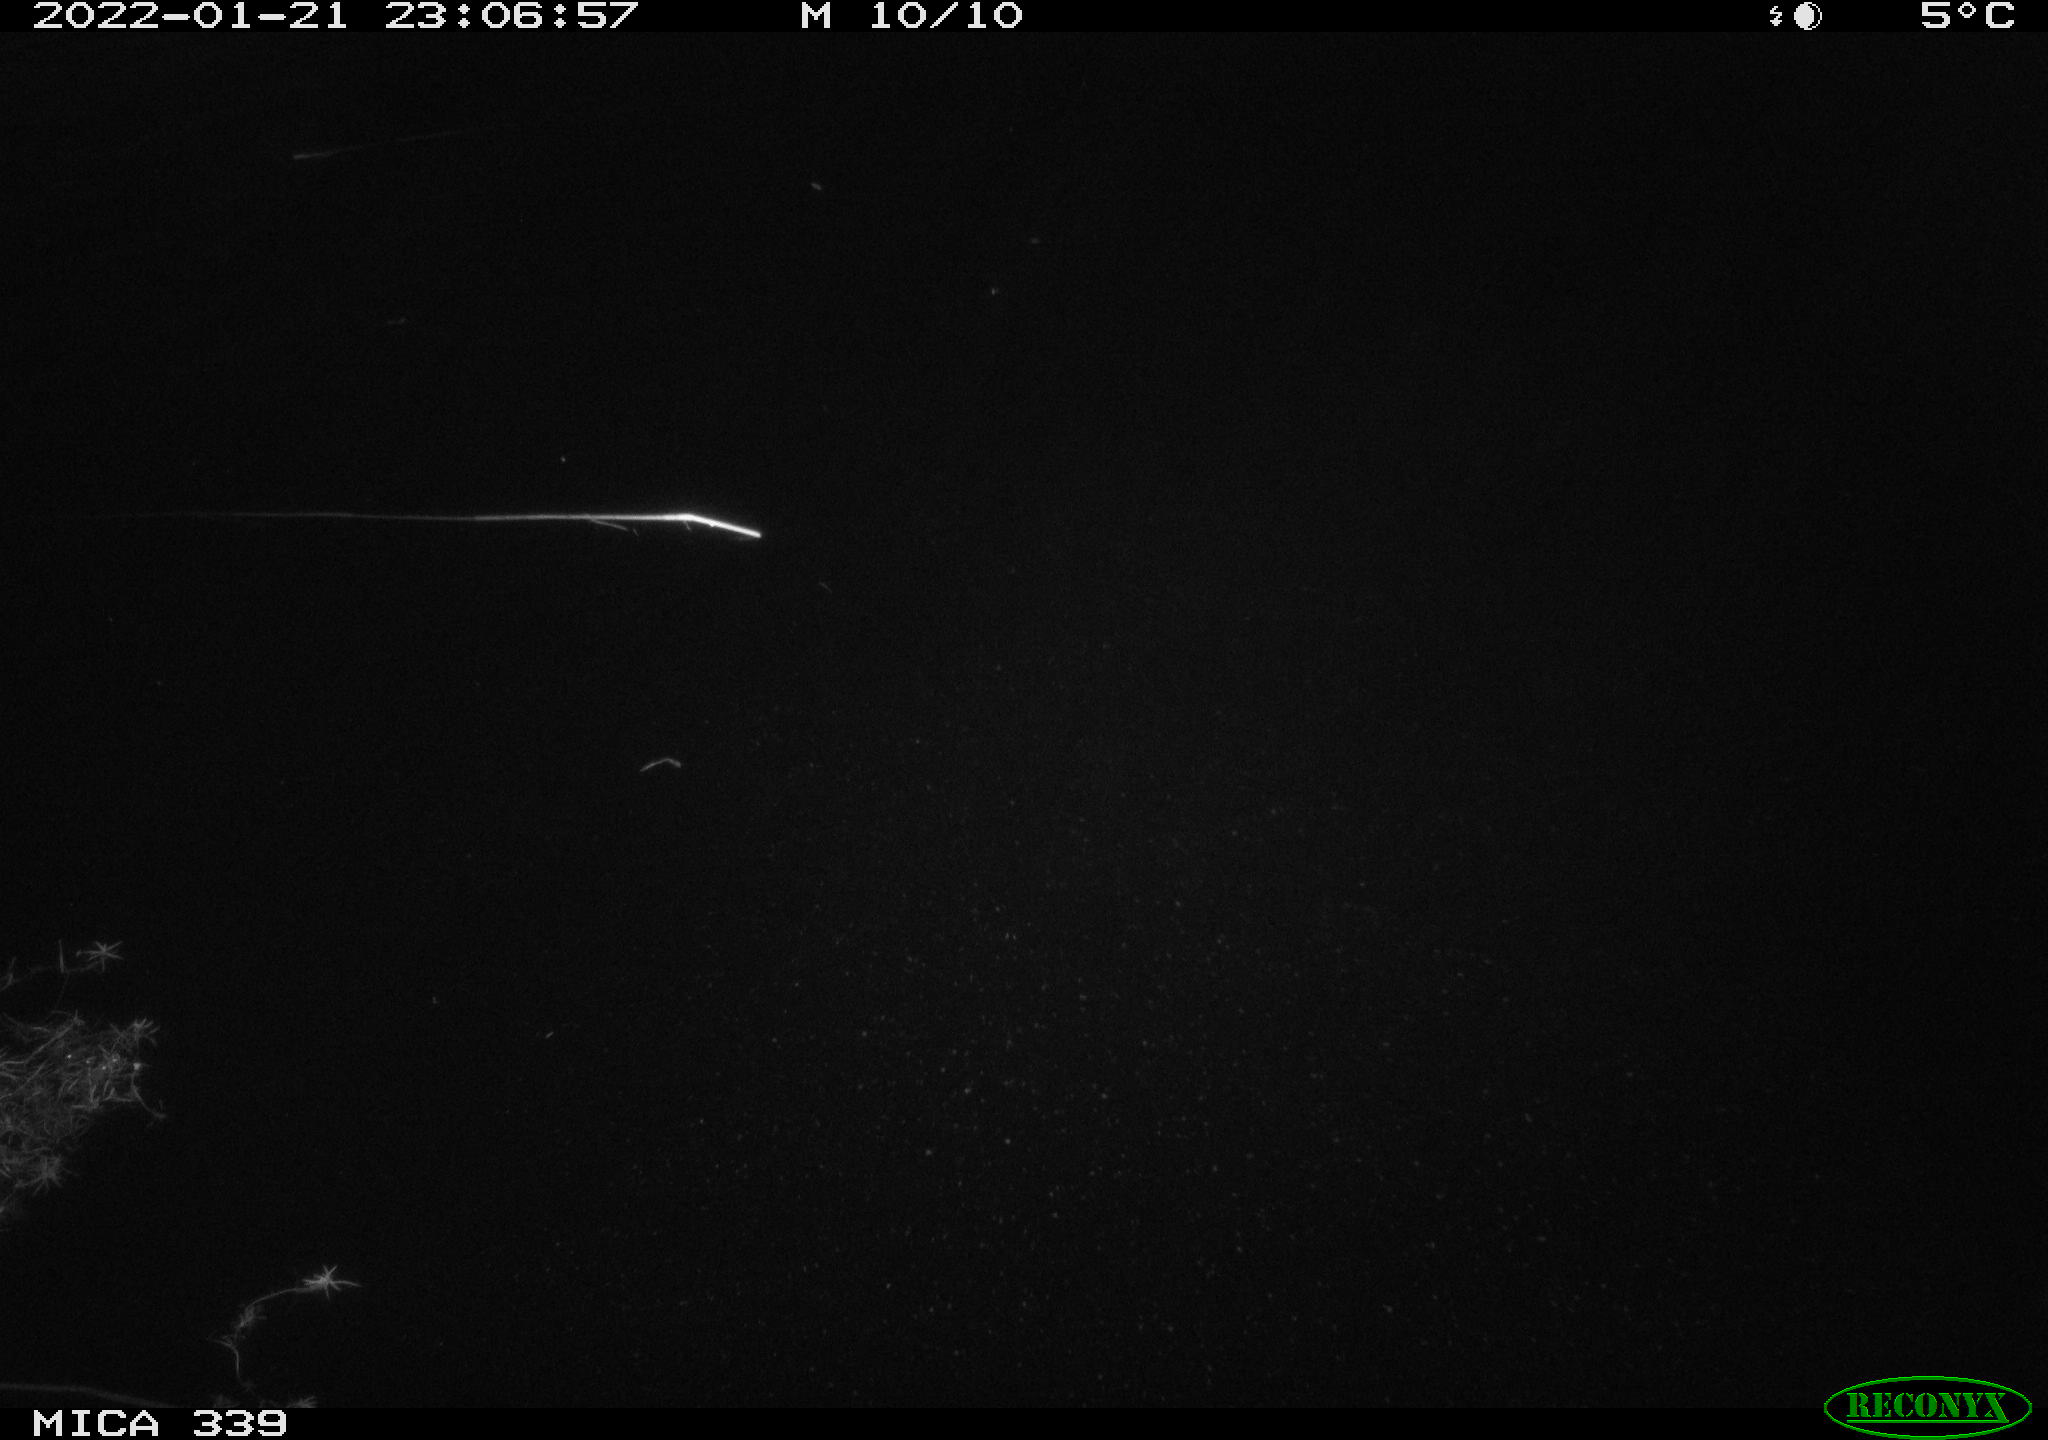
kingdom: Animalia
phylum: Chordata
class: Aves
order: Anseriformes
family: Anatidae
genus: Anas
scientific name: Anas platyrhynchos
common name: Mallard
